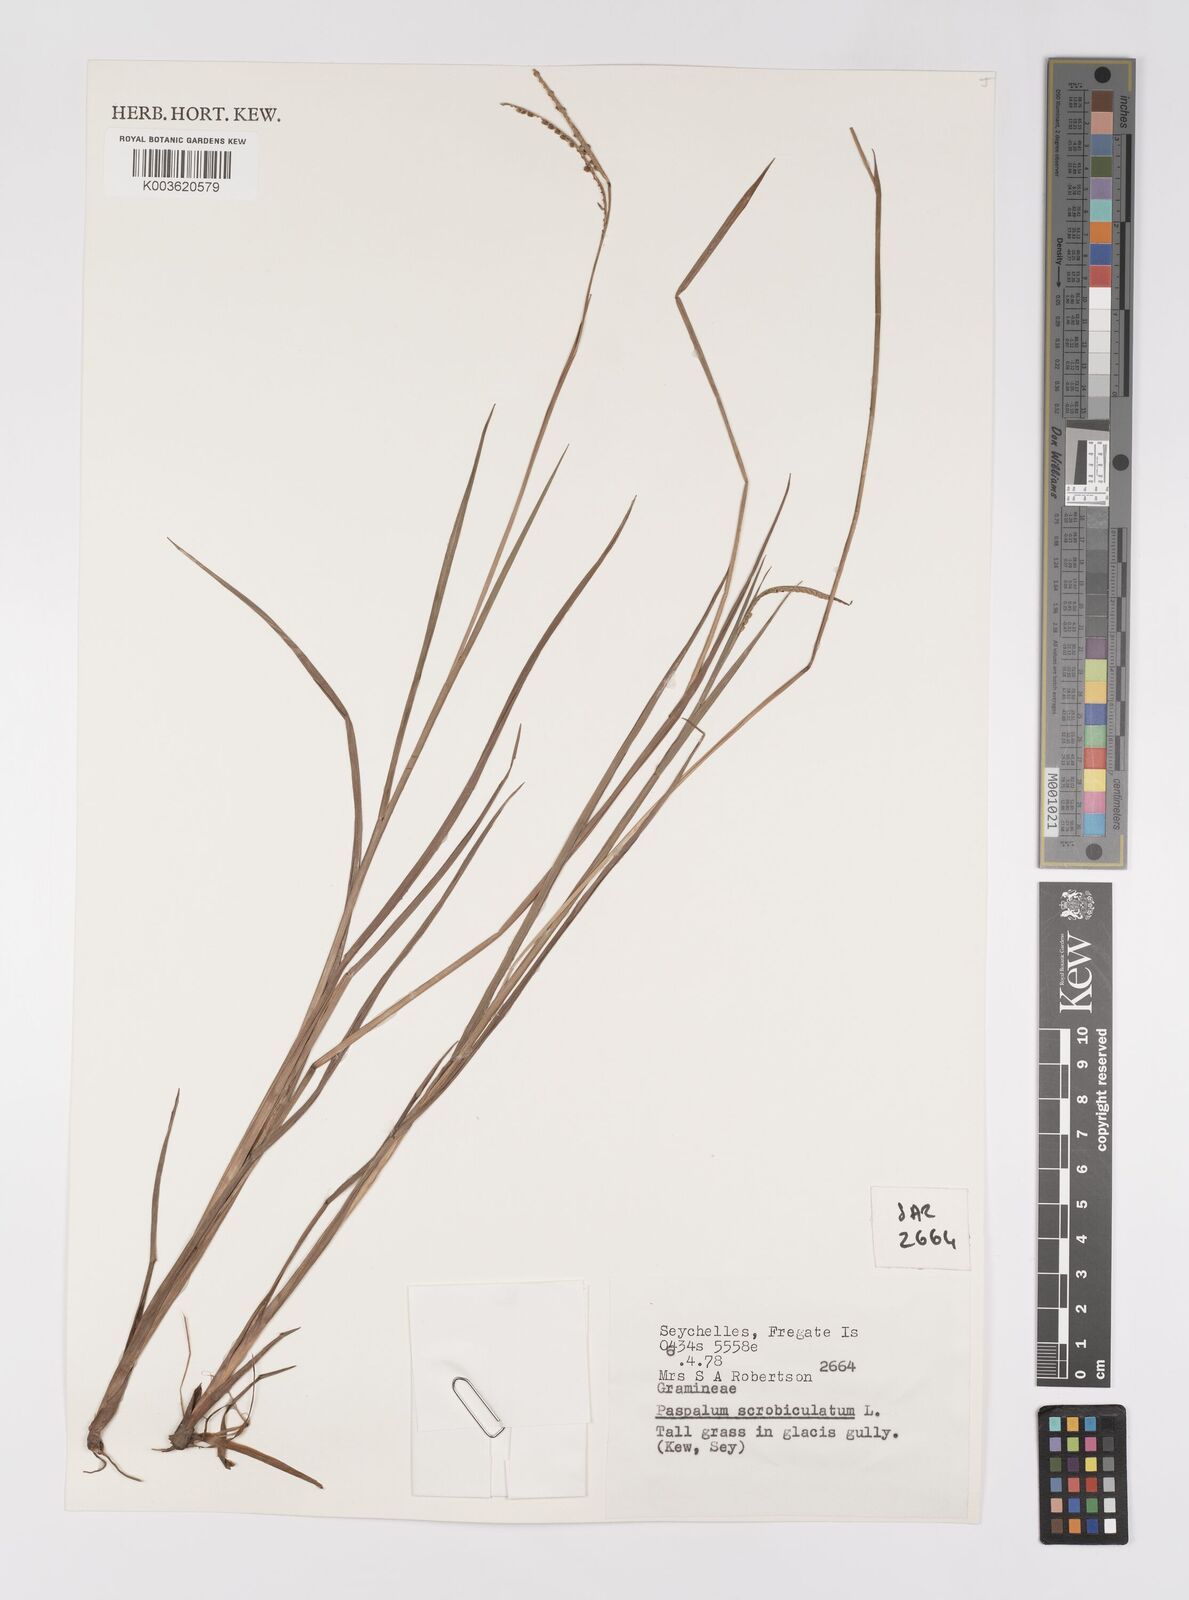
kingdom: Plantae
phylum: Tracheophyta
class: Liliopsida
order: Poales
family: Poaceae
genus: Paspalum
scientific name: Paspalum scrobiculatum
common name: Kodo millet
